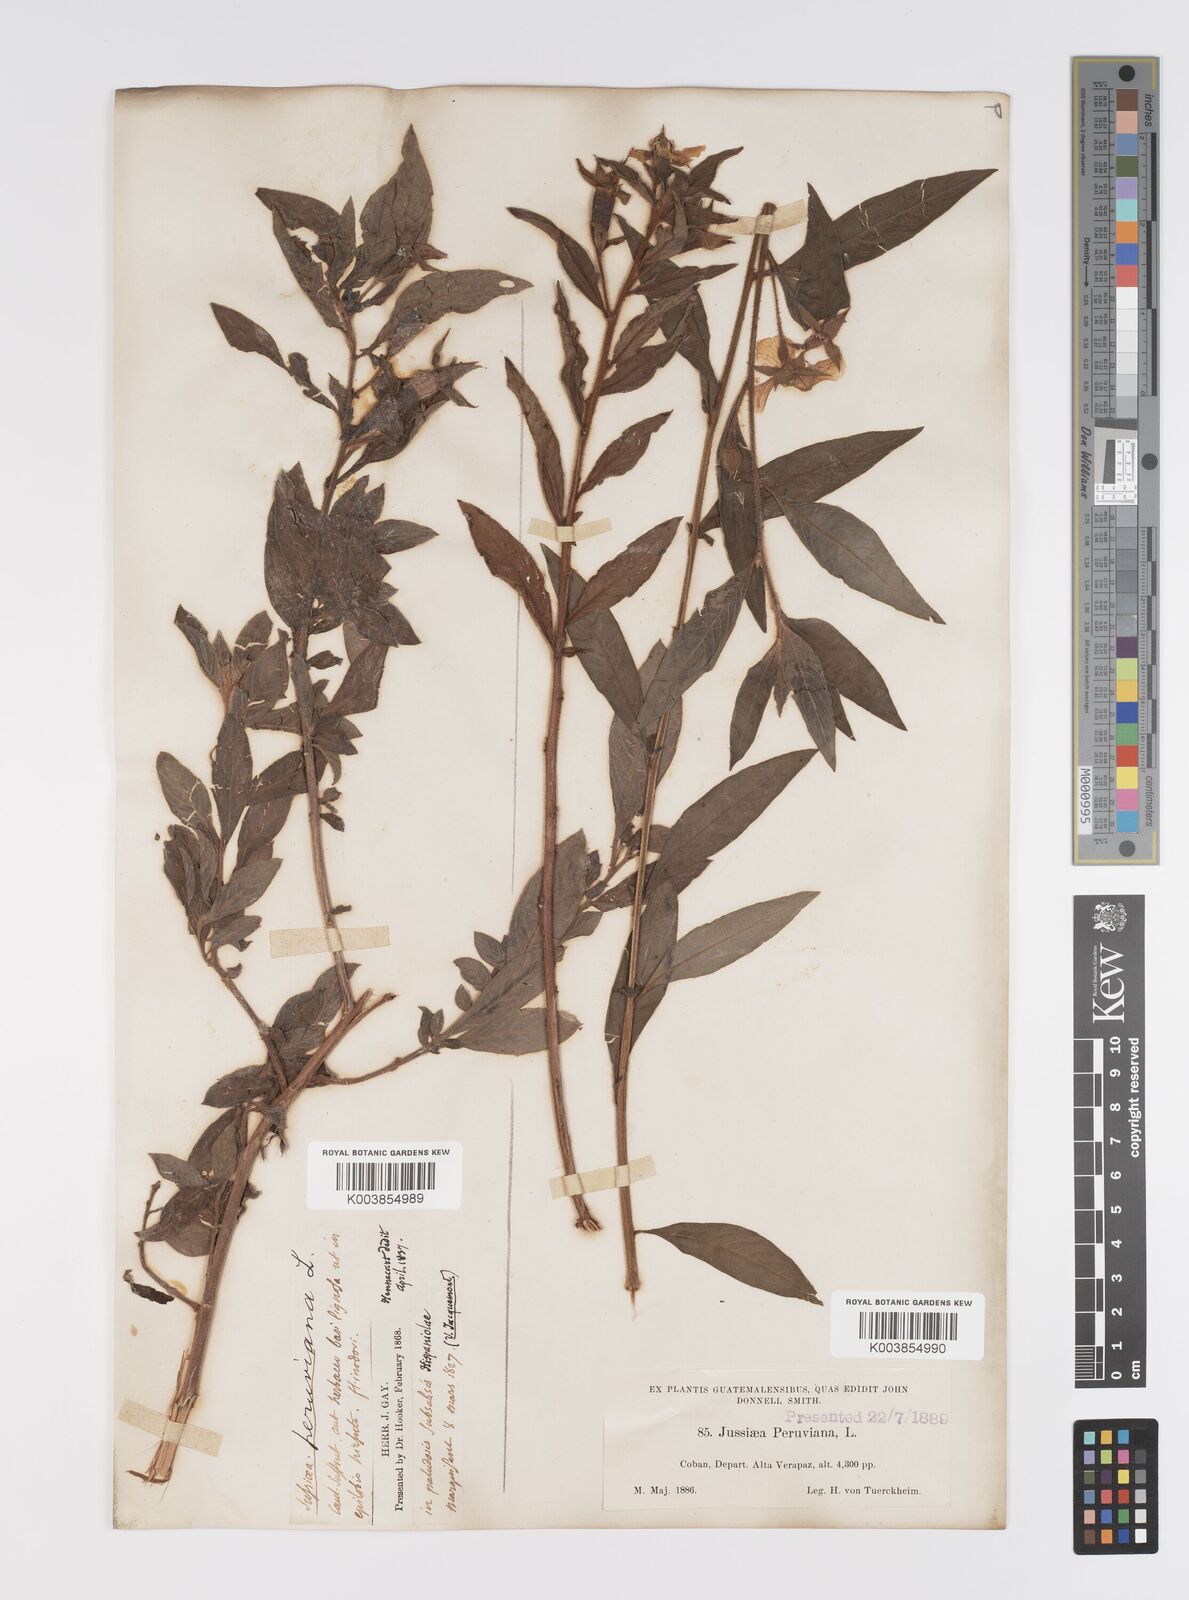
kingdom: Plantae
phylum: Tracheophyta
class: Magnoliopsida
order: Myrtales
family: Onagraceae
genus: Ludwigia
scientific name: Ludwigia peruviana
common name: Peruvian primrose-willow
